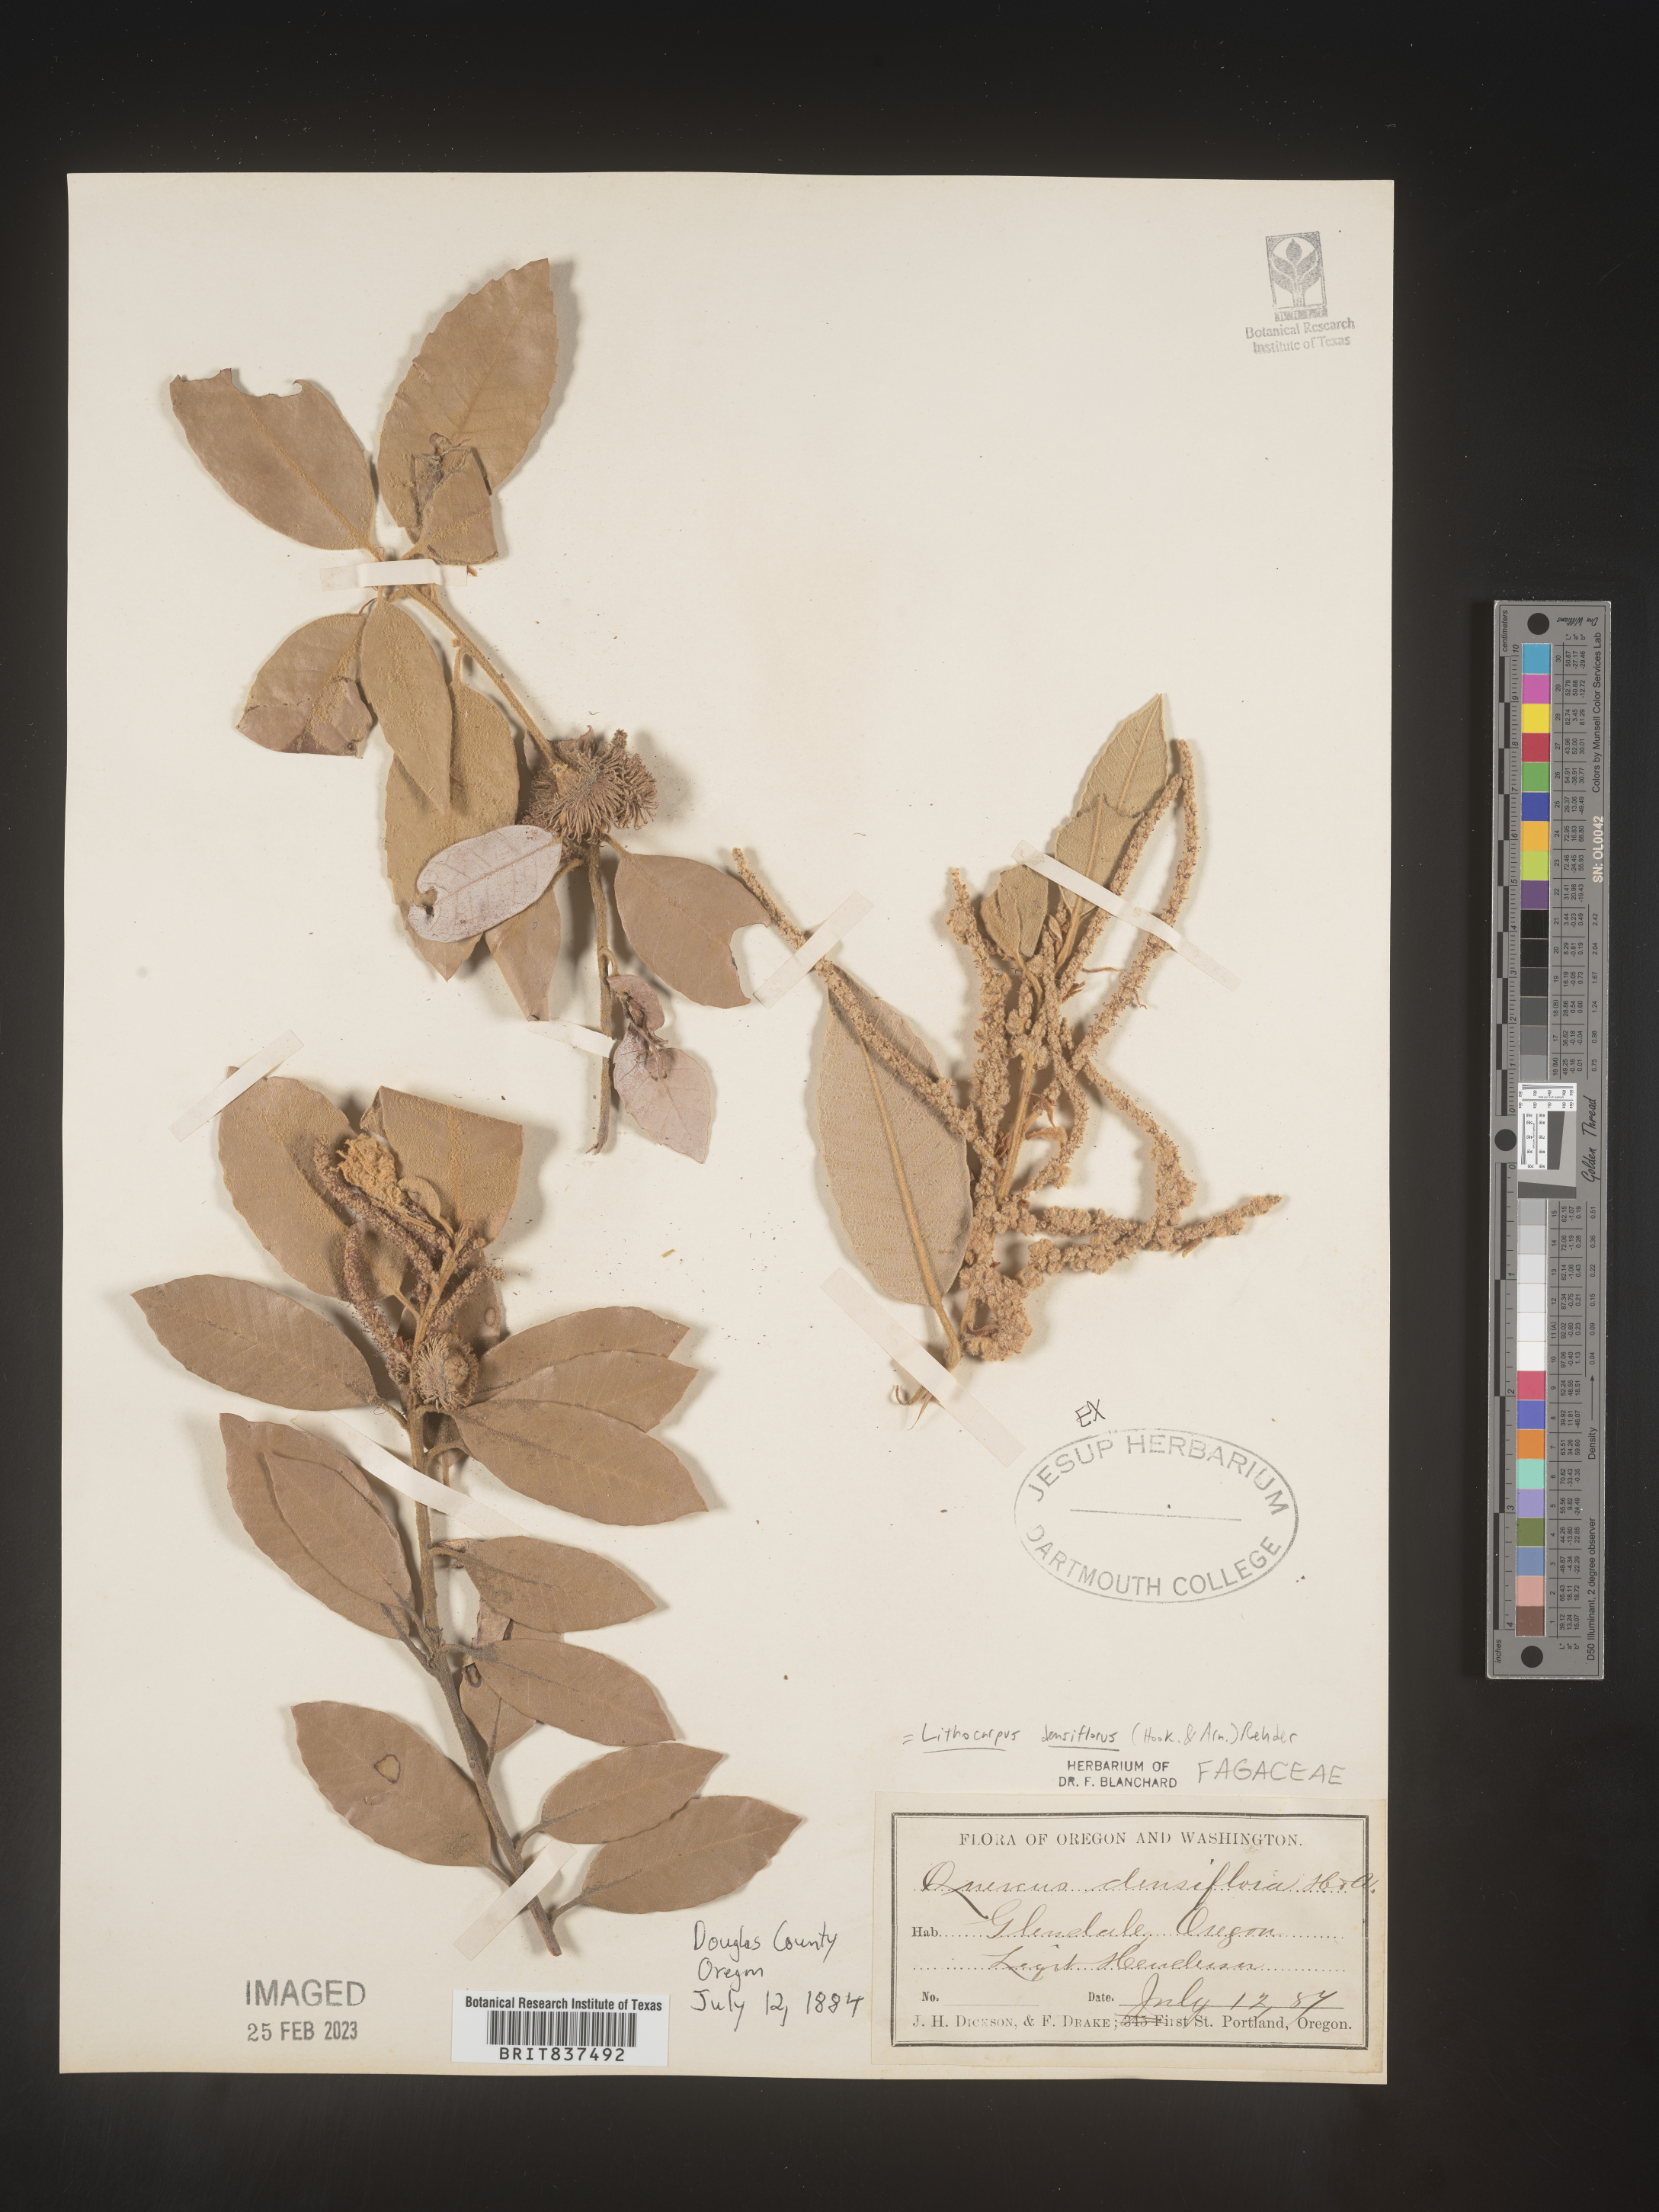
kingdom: Plantae
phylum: Tracheophyta
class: Magnoliopsida
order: Fagales
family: Fagaceae
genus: Lithocarpus
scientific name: Lithocarpus
